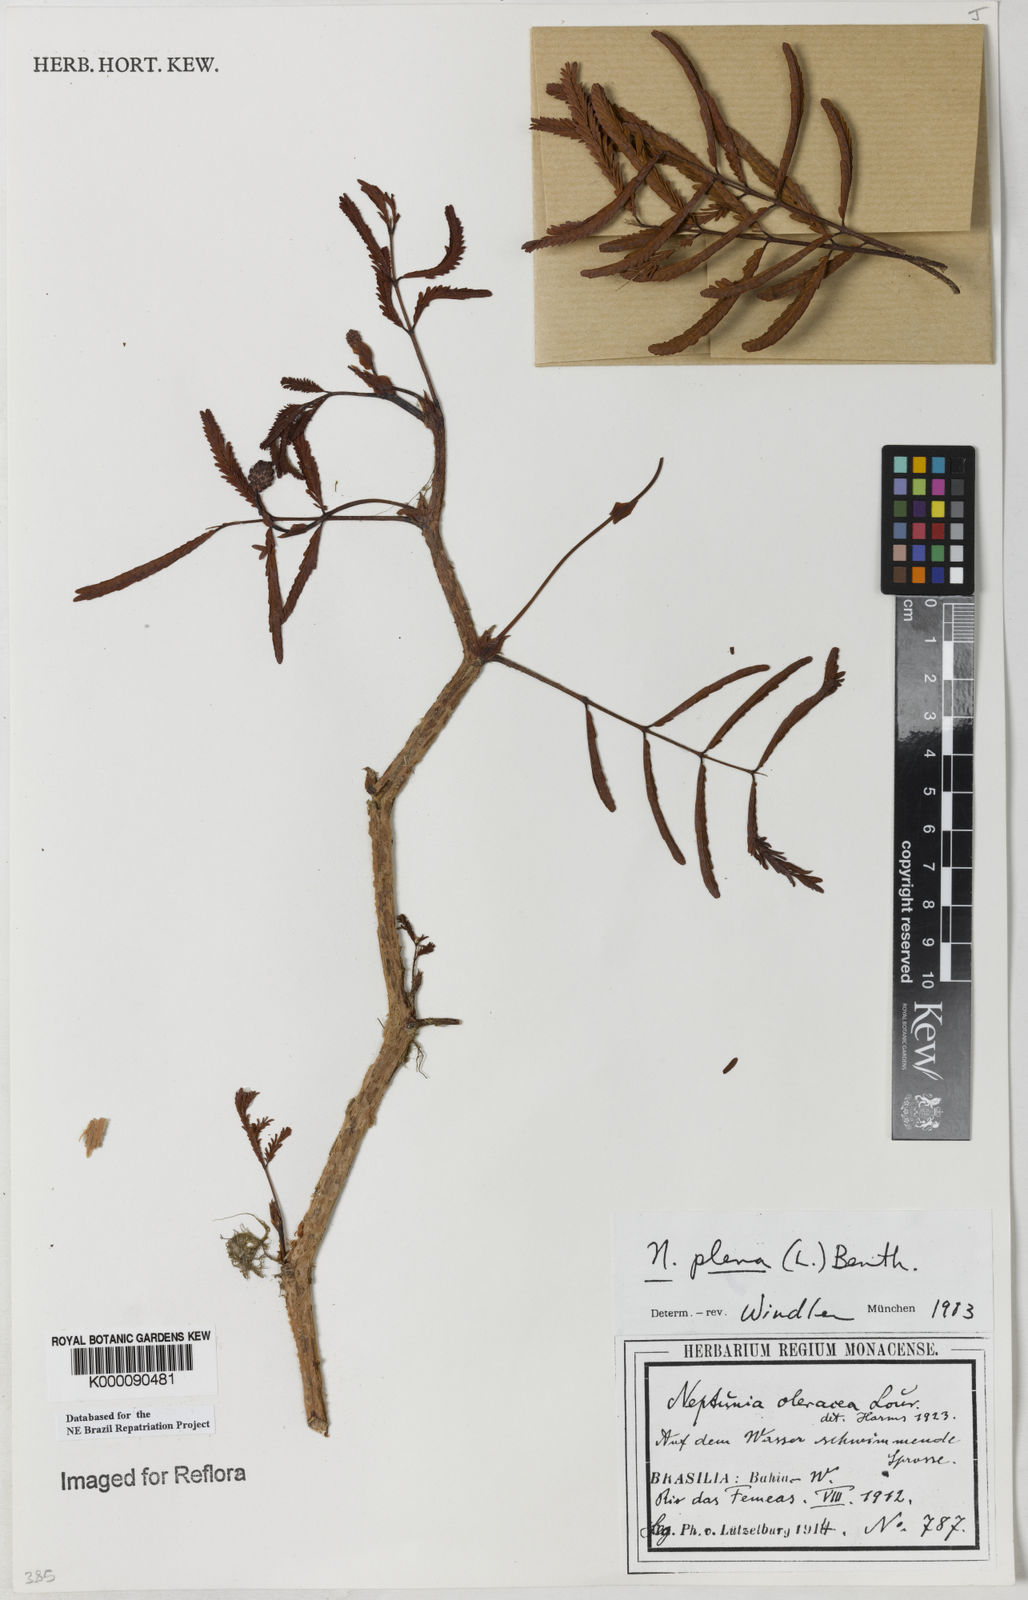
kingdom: Plantae
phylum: Tracheophyta
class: Magnoliopsida
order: Fabales
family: Fabaceae
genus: Neptunia
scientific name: Neptunia plena
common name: Dead and awake
